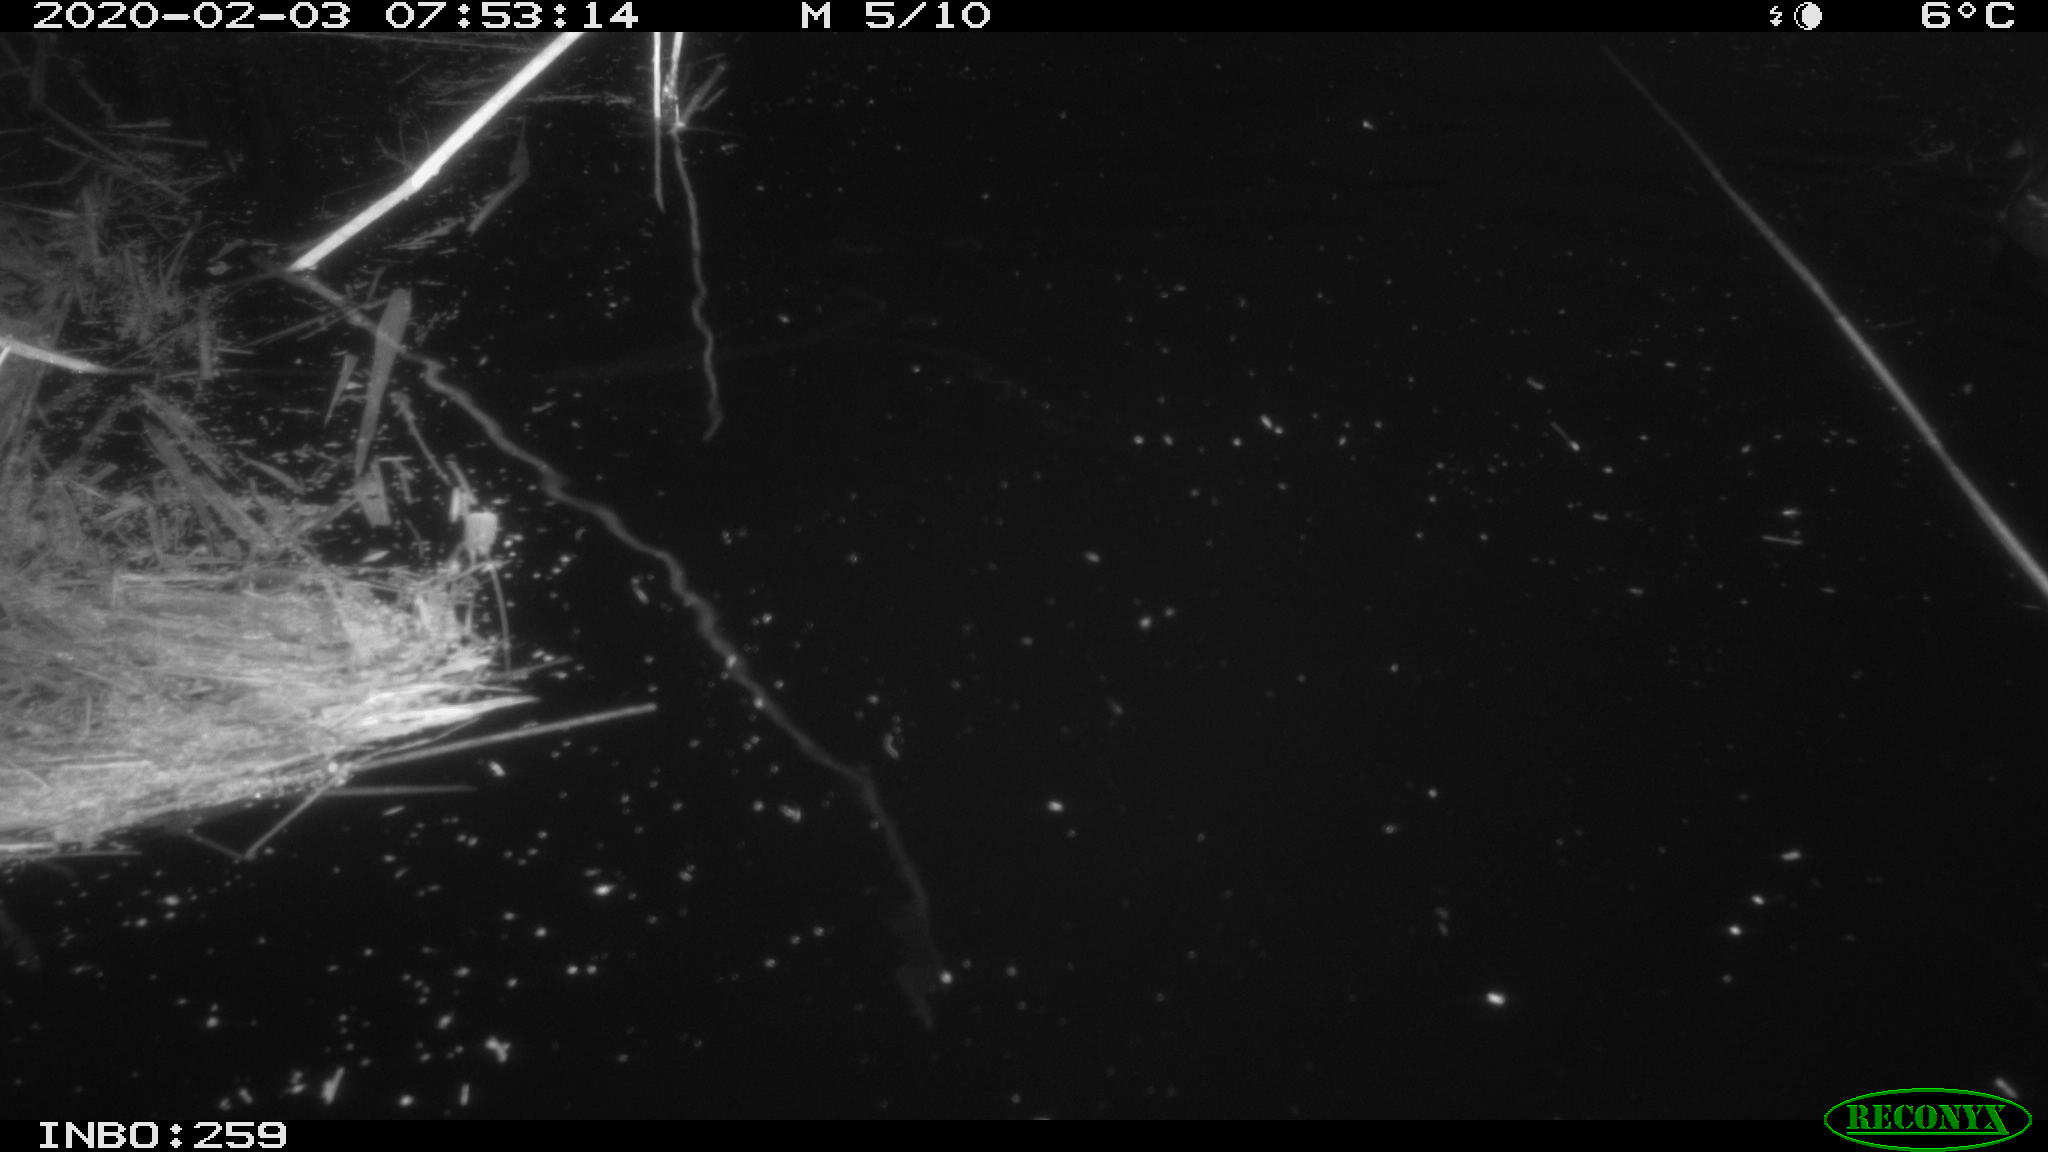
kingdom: Animalia
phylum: Chordata
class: Aves
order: Gruiformes
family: Rallidae
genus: Gallinula
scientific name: Gallinula chloropus
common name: Common moorhen
